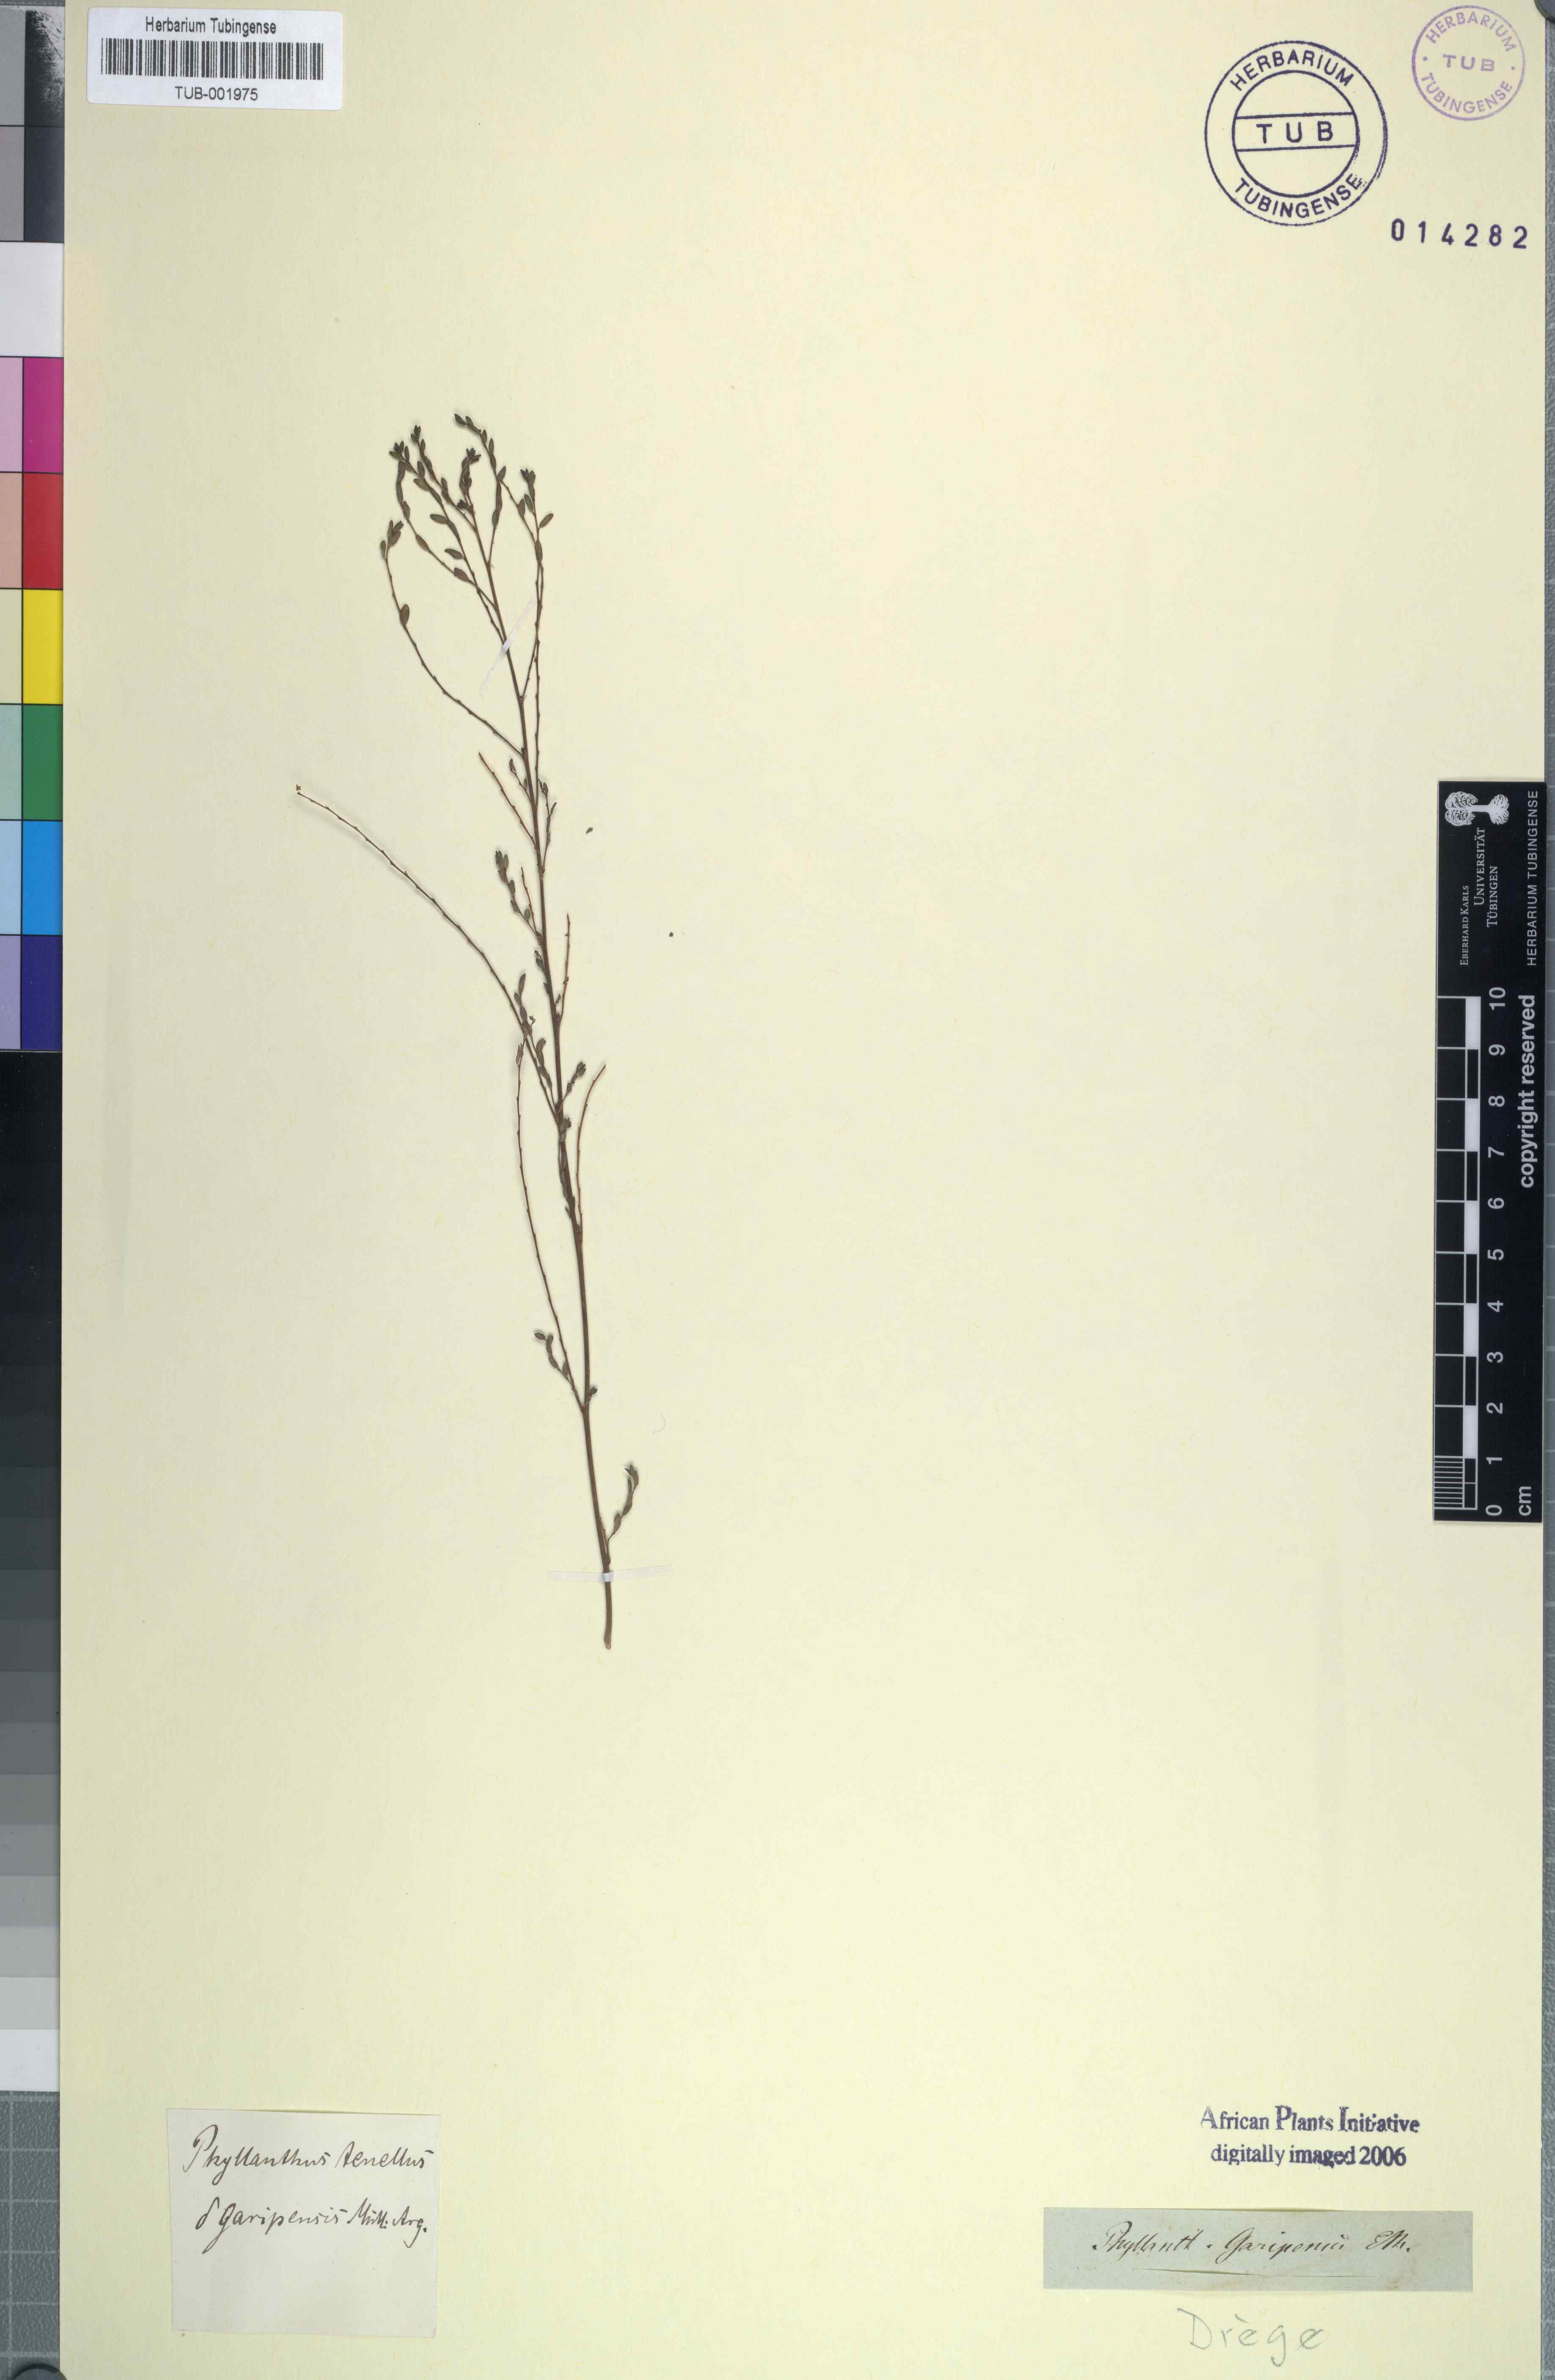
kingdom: Plantae
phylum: Tracheophyta
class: Magnoliopsida
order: Malpighiales
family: Phyllanthaceae
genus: Phyllanthus
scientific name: Phyllanthus tenellus
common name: Mascarene island leaf-flower
